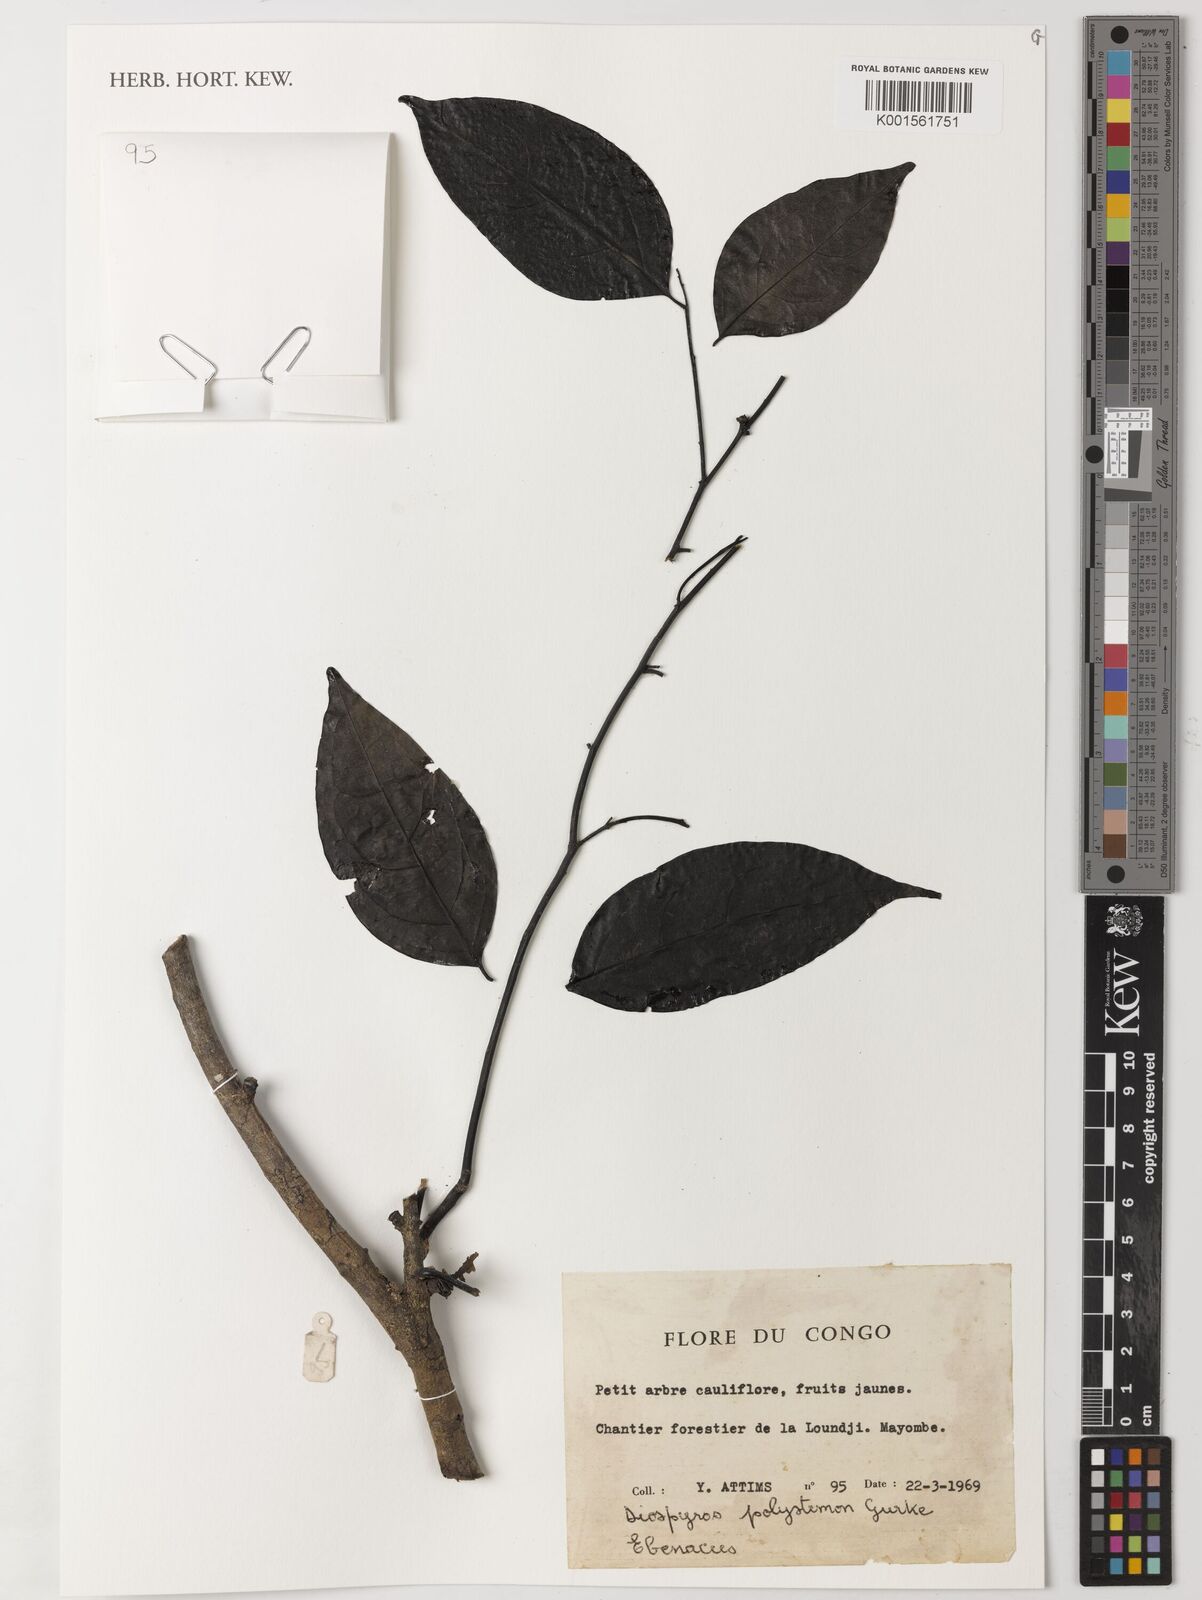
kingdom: Plantae
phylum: Tracheophyta
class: Magnoliopsida
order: Ericales
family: Ebenaceae
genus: Diospyros
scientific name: Diospyros polystemon
